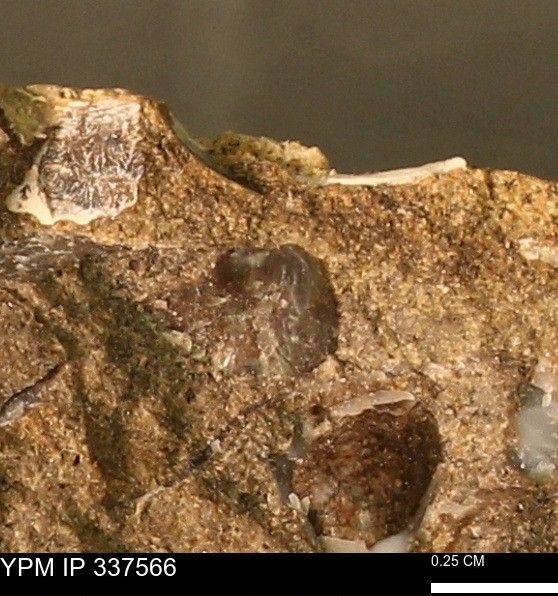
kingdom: Animalia
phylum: Mollusca
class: Bivalvia
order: Ostreida
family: Ostreidae
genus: Ostrea
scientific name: Ostrea
